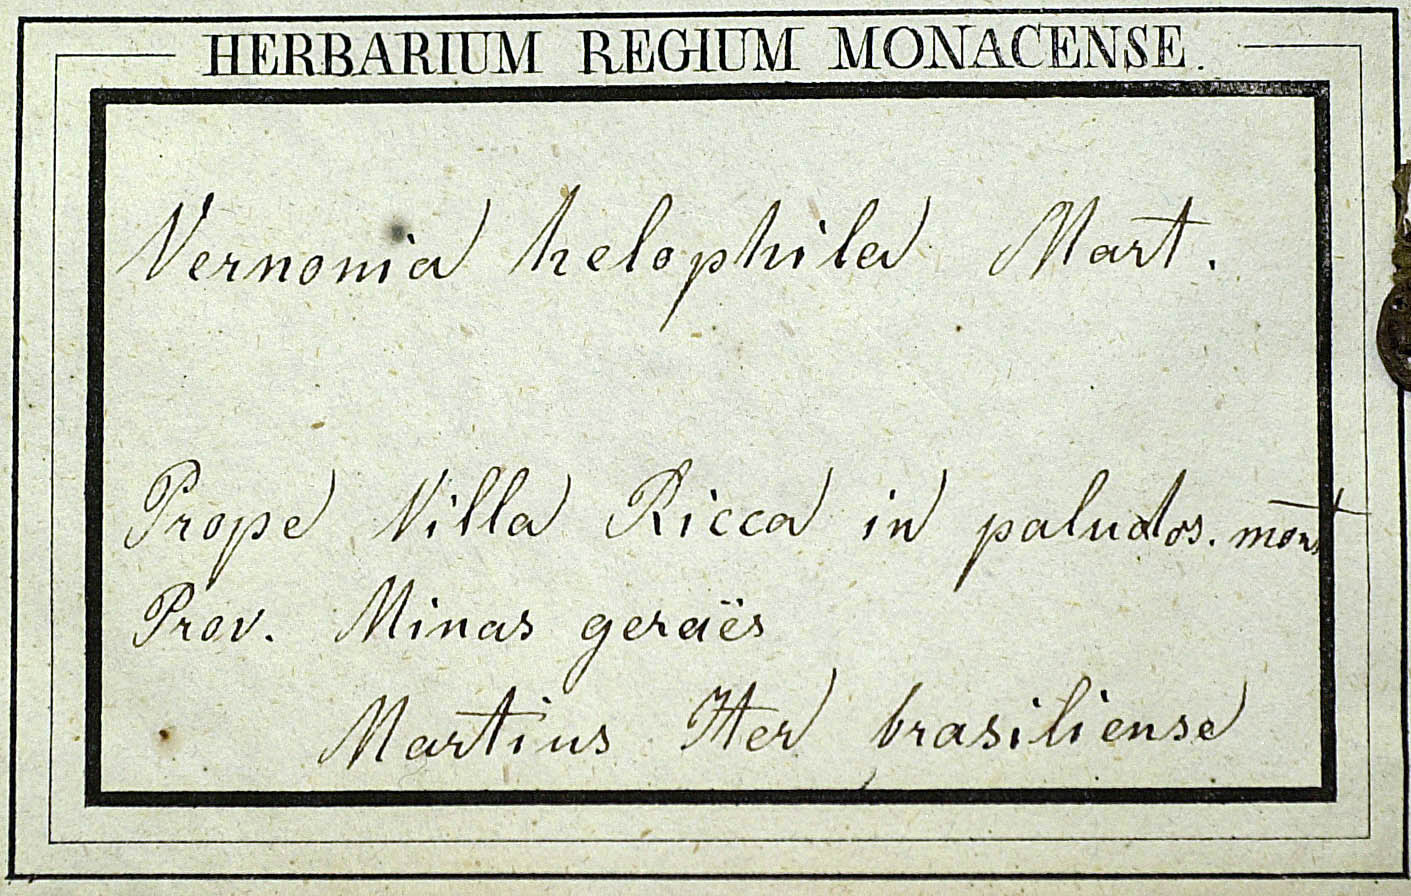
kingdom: Plantae
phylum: Tracheophyta
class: Magnoliopsida
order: Asterales
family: Asteraceae
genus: Lepidaploa
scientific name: Lepidaploa helophila
